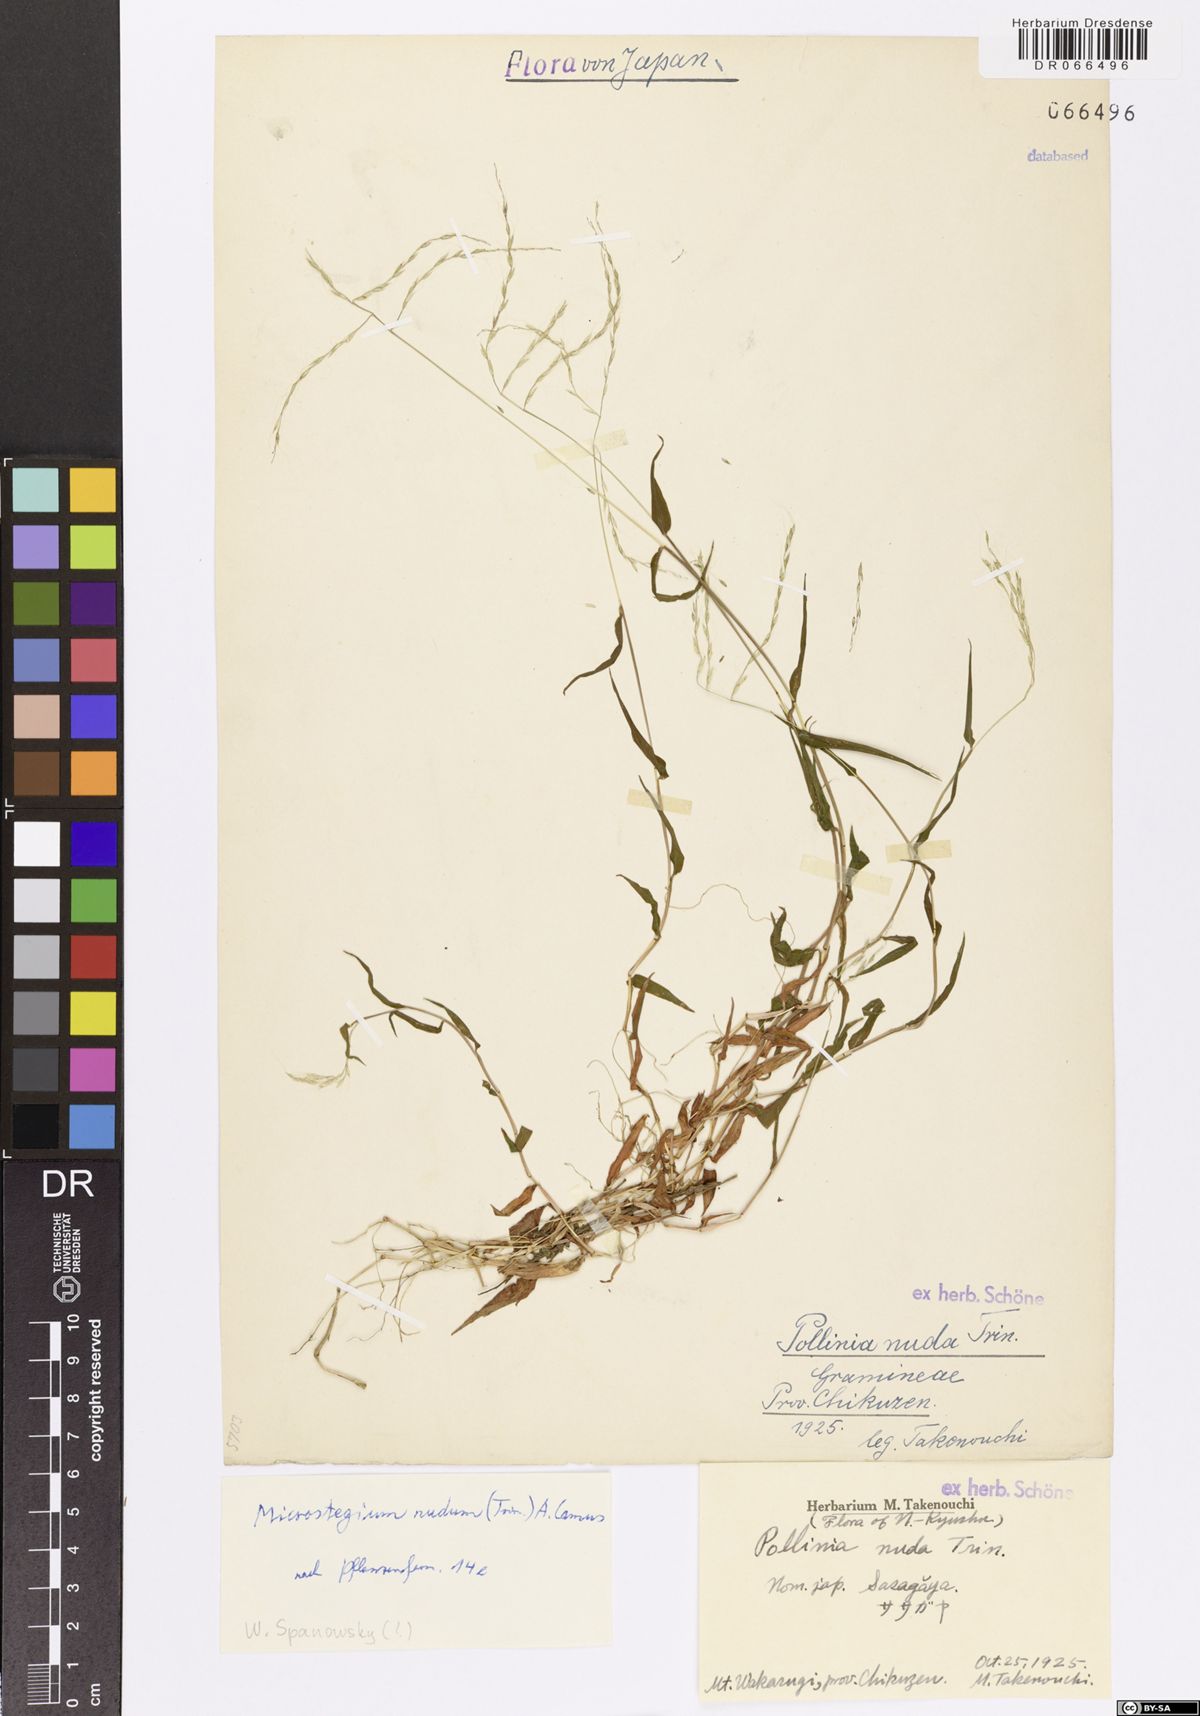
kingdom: Plantae
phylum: Tracheophyta
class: Liliopsida
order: Poales
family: Poaceae
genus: Microstegium
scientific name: Microstegium nudum
